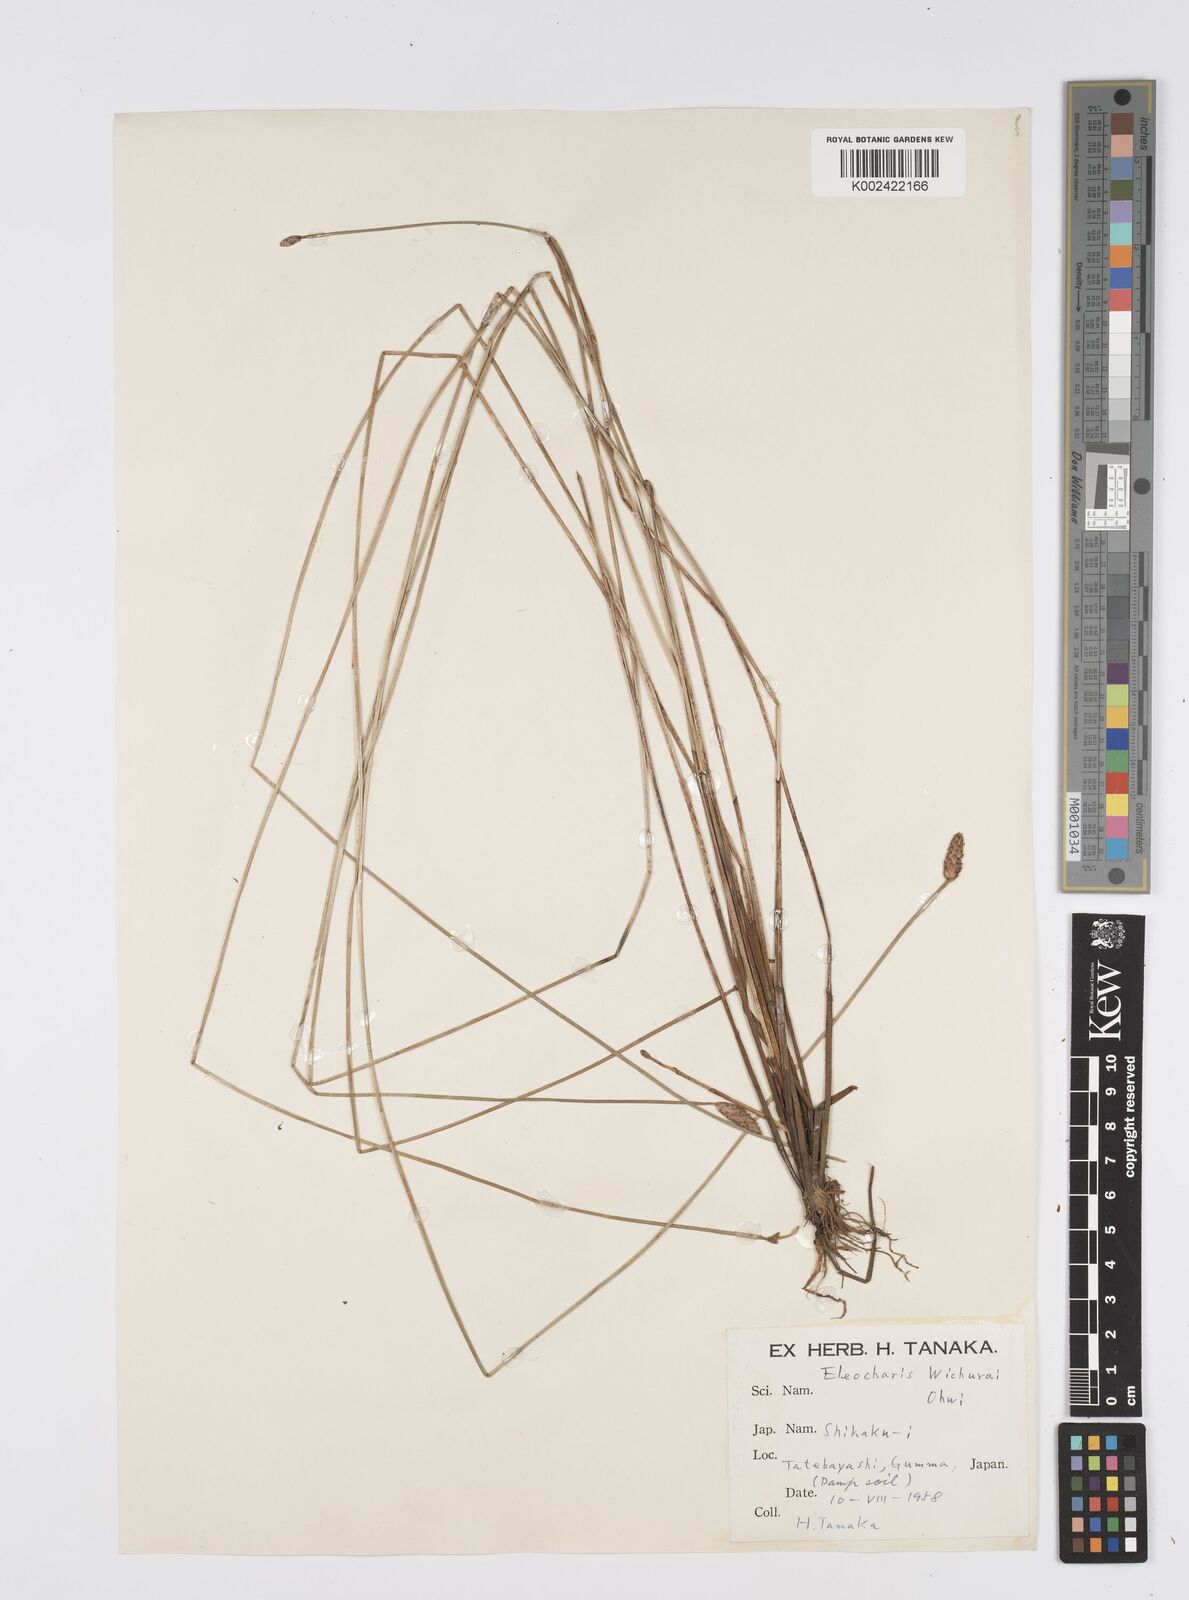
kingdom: Plantae
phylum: Tracheophyta
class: Liliopsida
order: Poales
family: Cyperaceae
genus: Eleocharis
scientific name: Eleocharis tetraquetra
